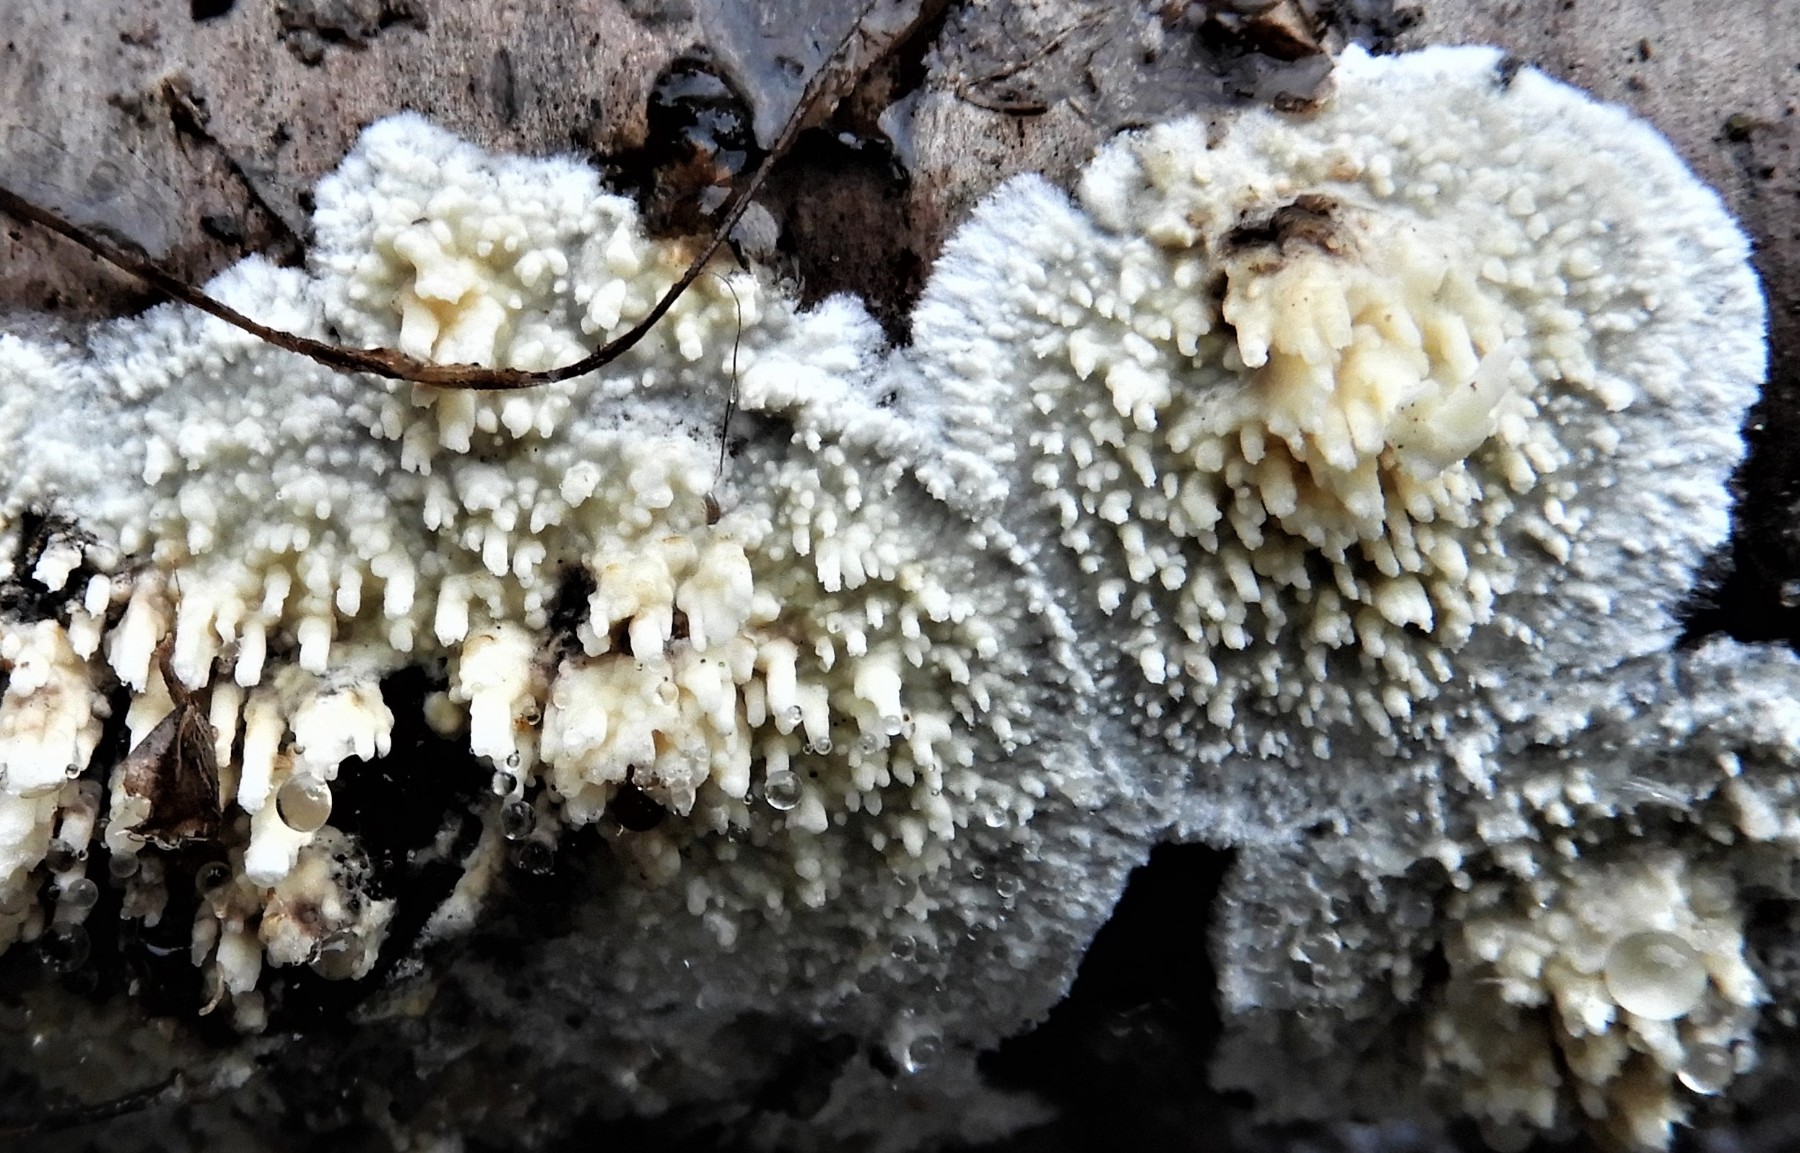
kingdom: Fungi
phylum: Basidiomycota
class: Agaricomycetes
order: Hymenochaetales
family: Schizoporaceae
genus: Xylodon
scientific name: Xylodon radula
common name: grovtandet kalkskind
